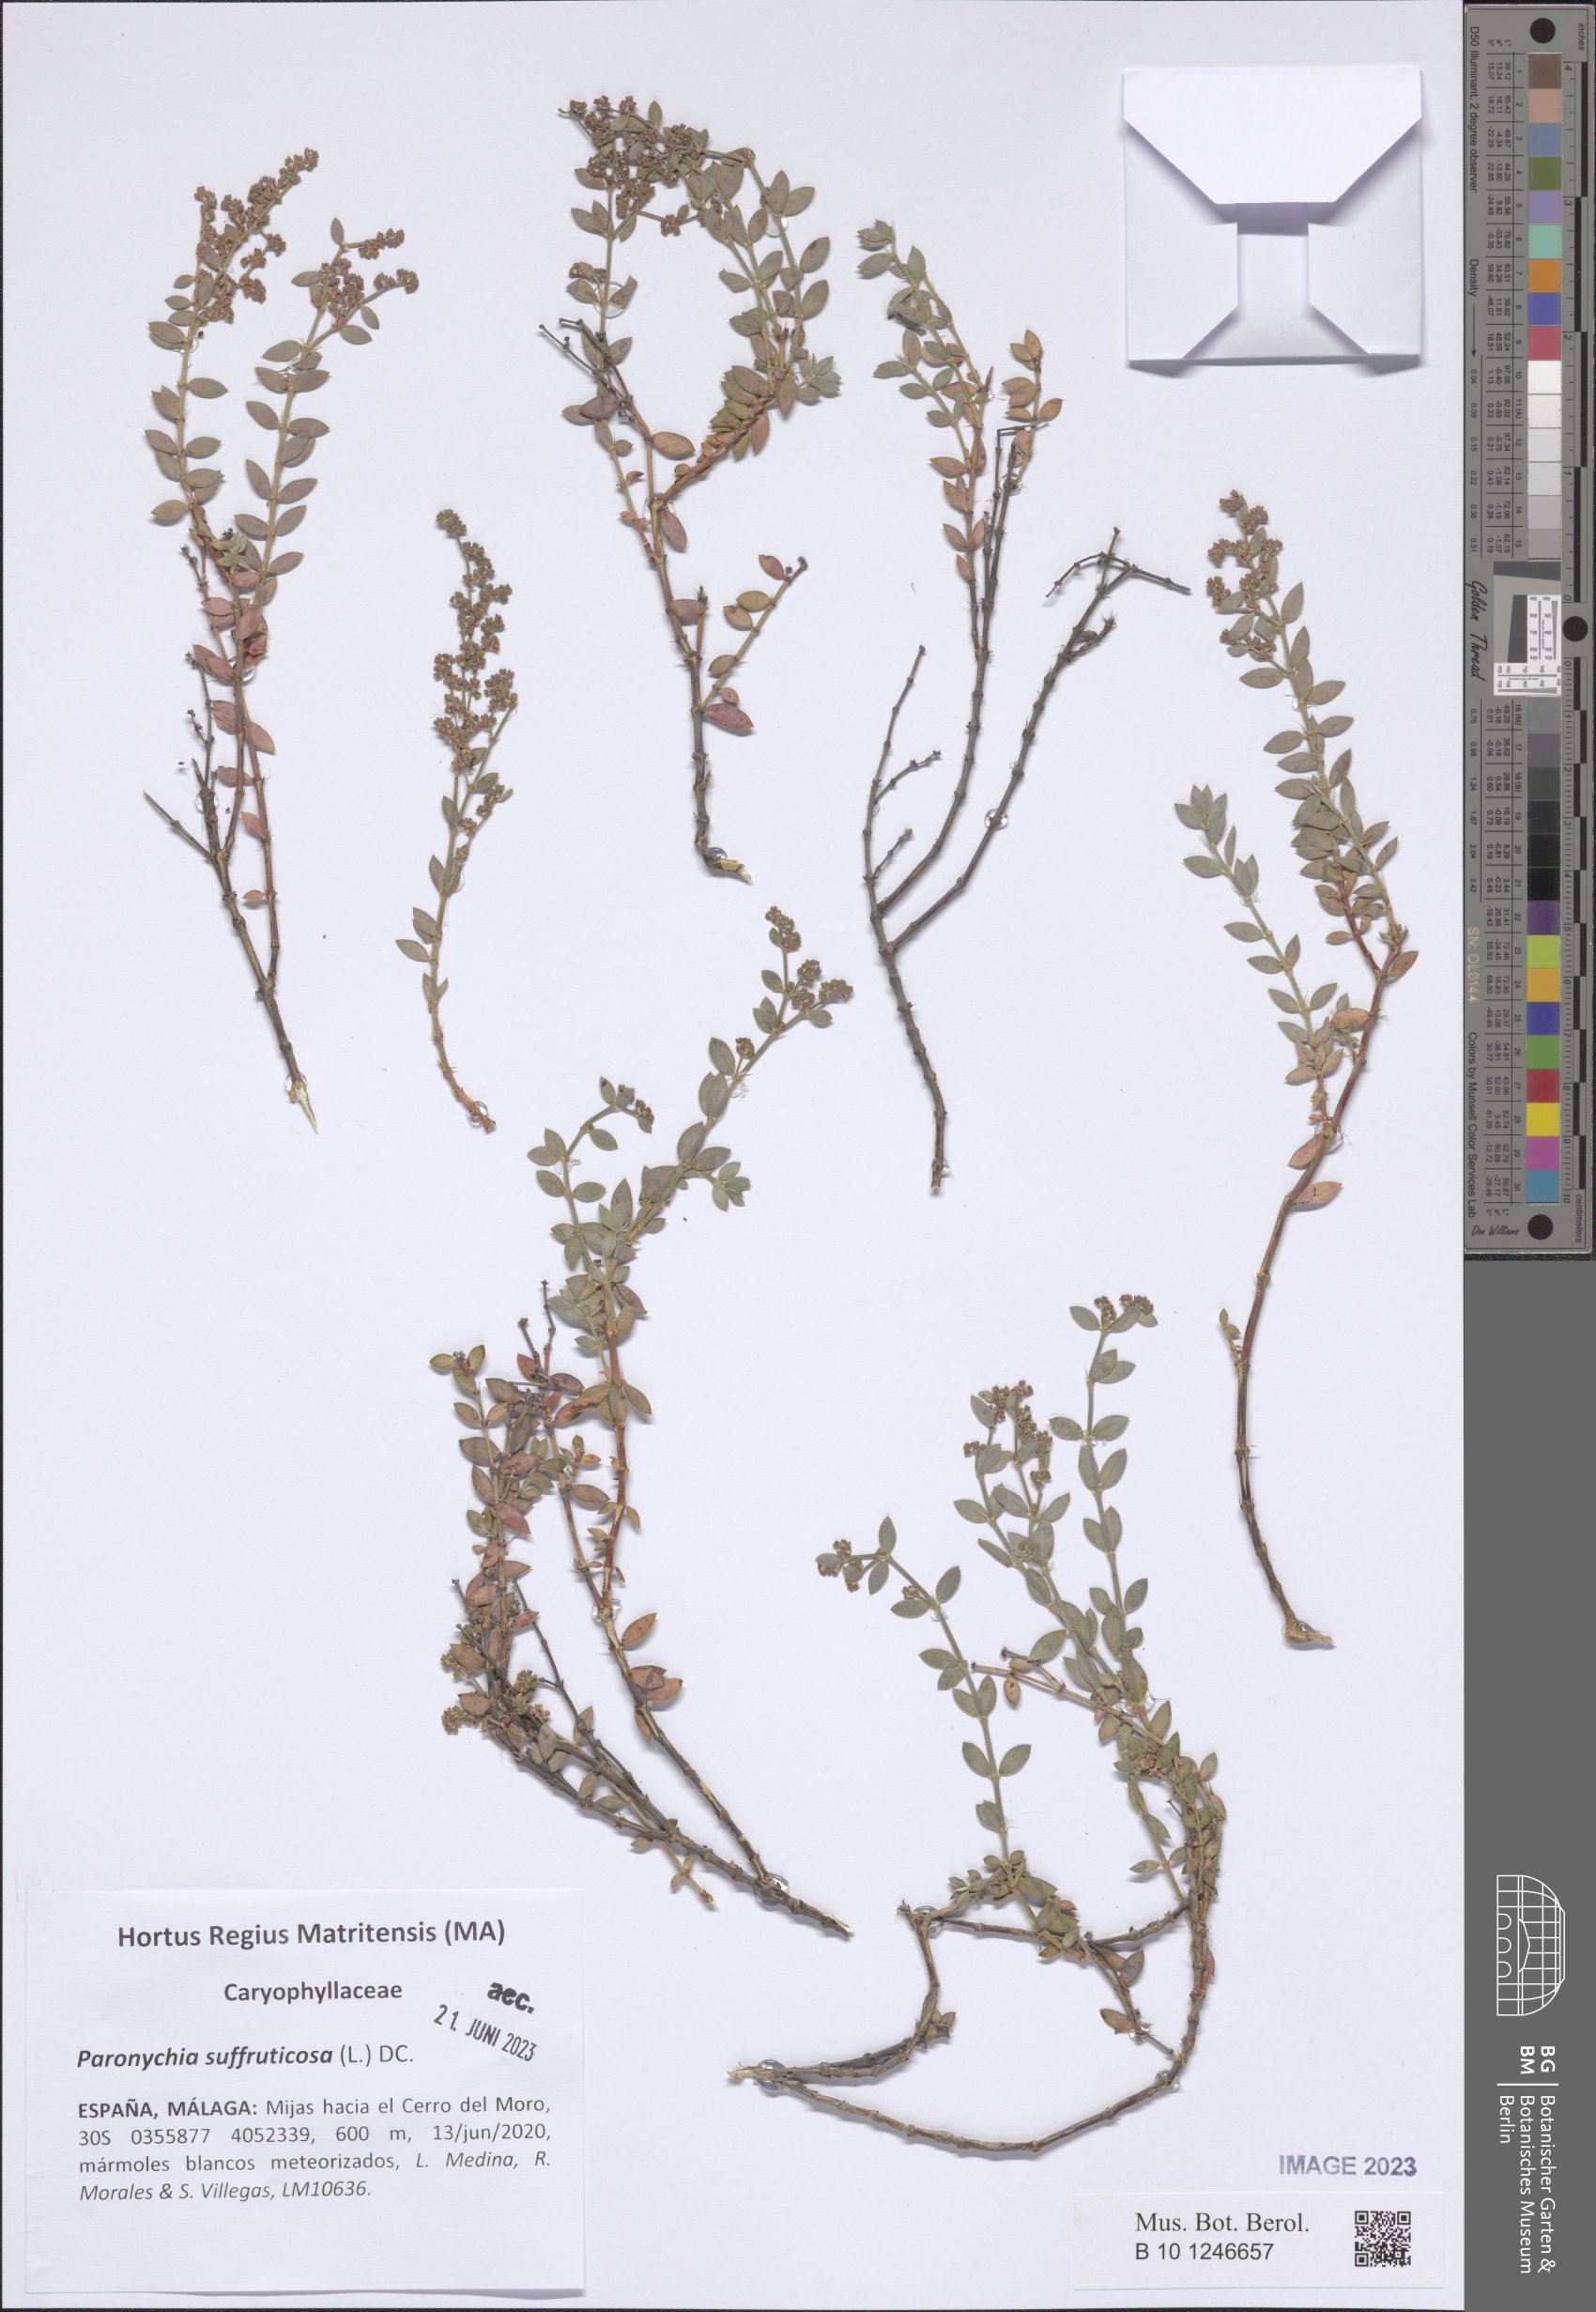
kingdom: Plantae
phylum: Tracheophyta
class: Magnoliopsida
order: Caryophyllales
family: Caryophyllaceae
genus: Paronychia
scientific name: Paronychia suffruticosa
